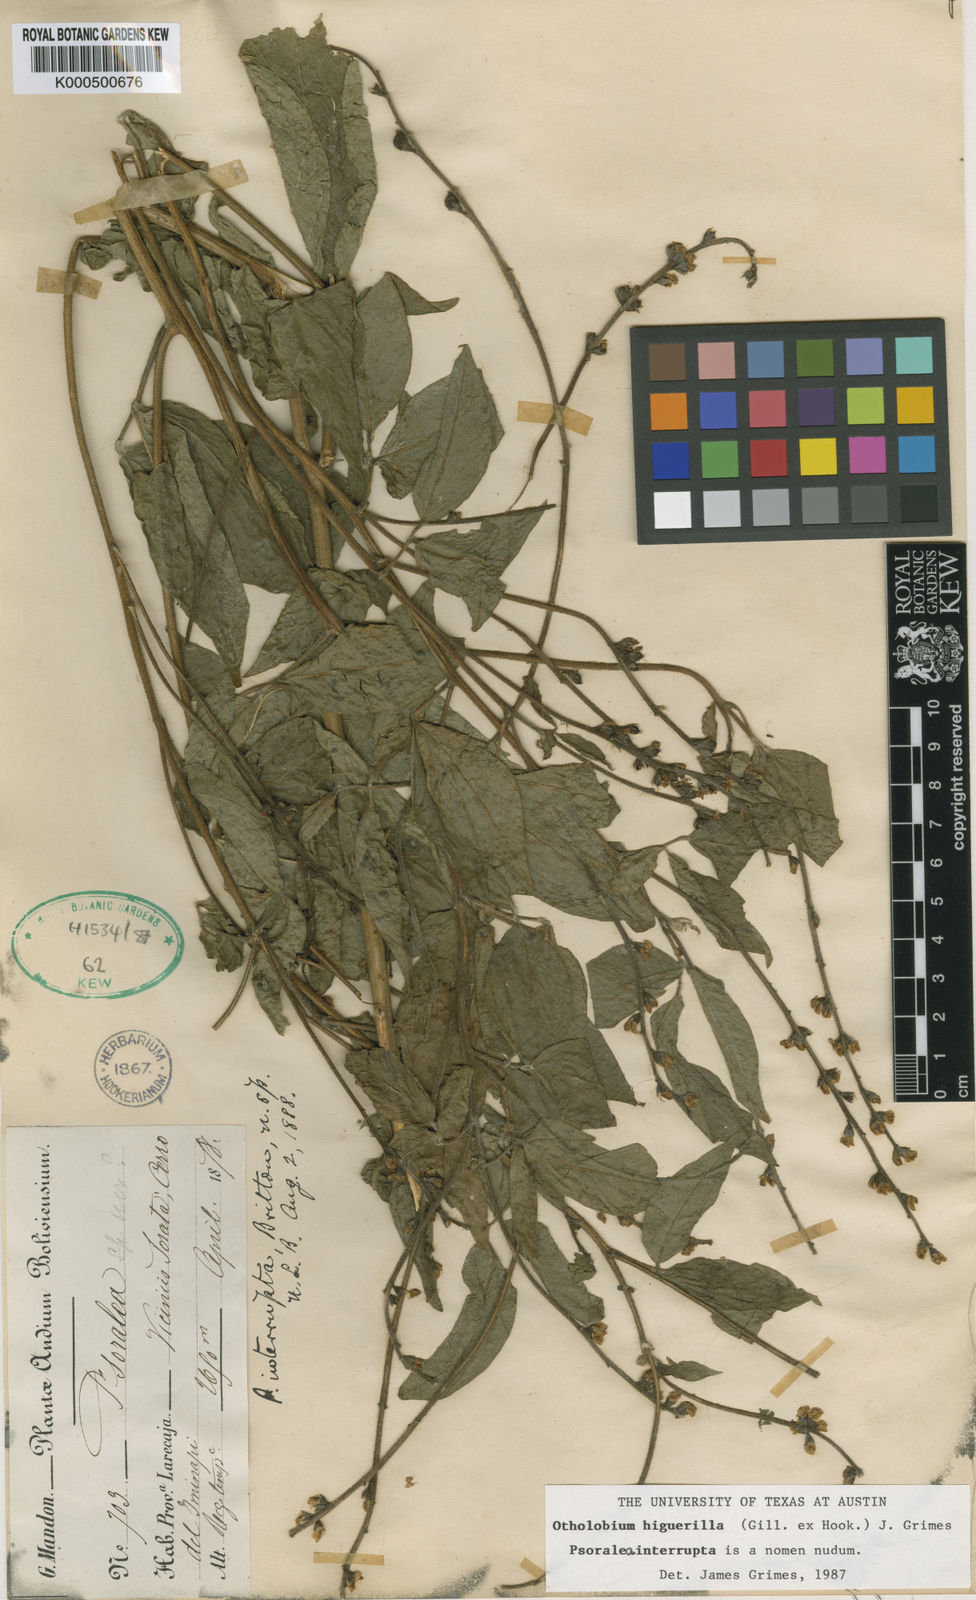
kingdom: Plantae
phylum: Tracheophyta
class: Magnoliopsida
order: Fabales
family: Fabaceae
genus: Psoralea
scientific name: Psoralea Otholobium higuerilla
